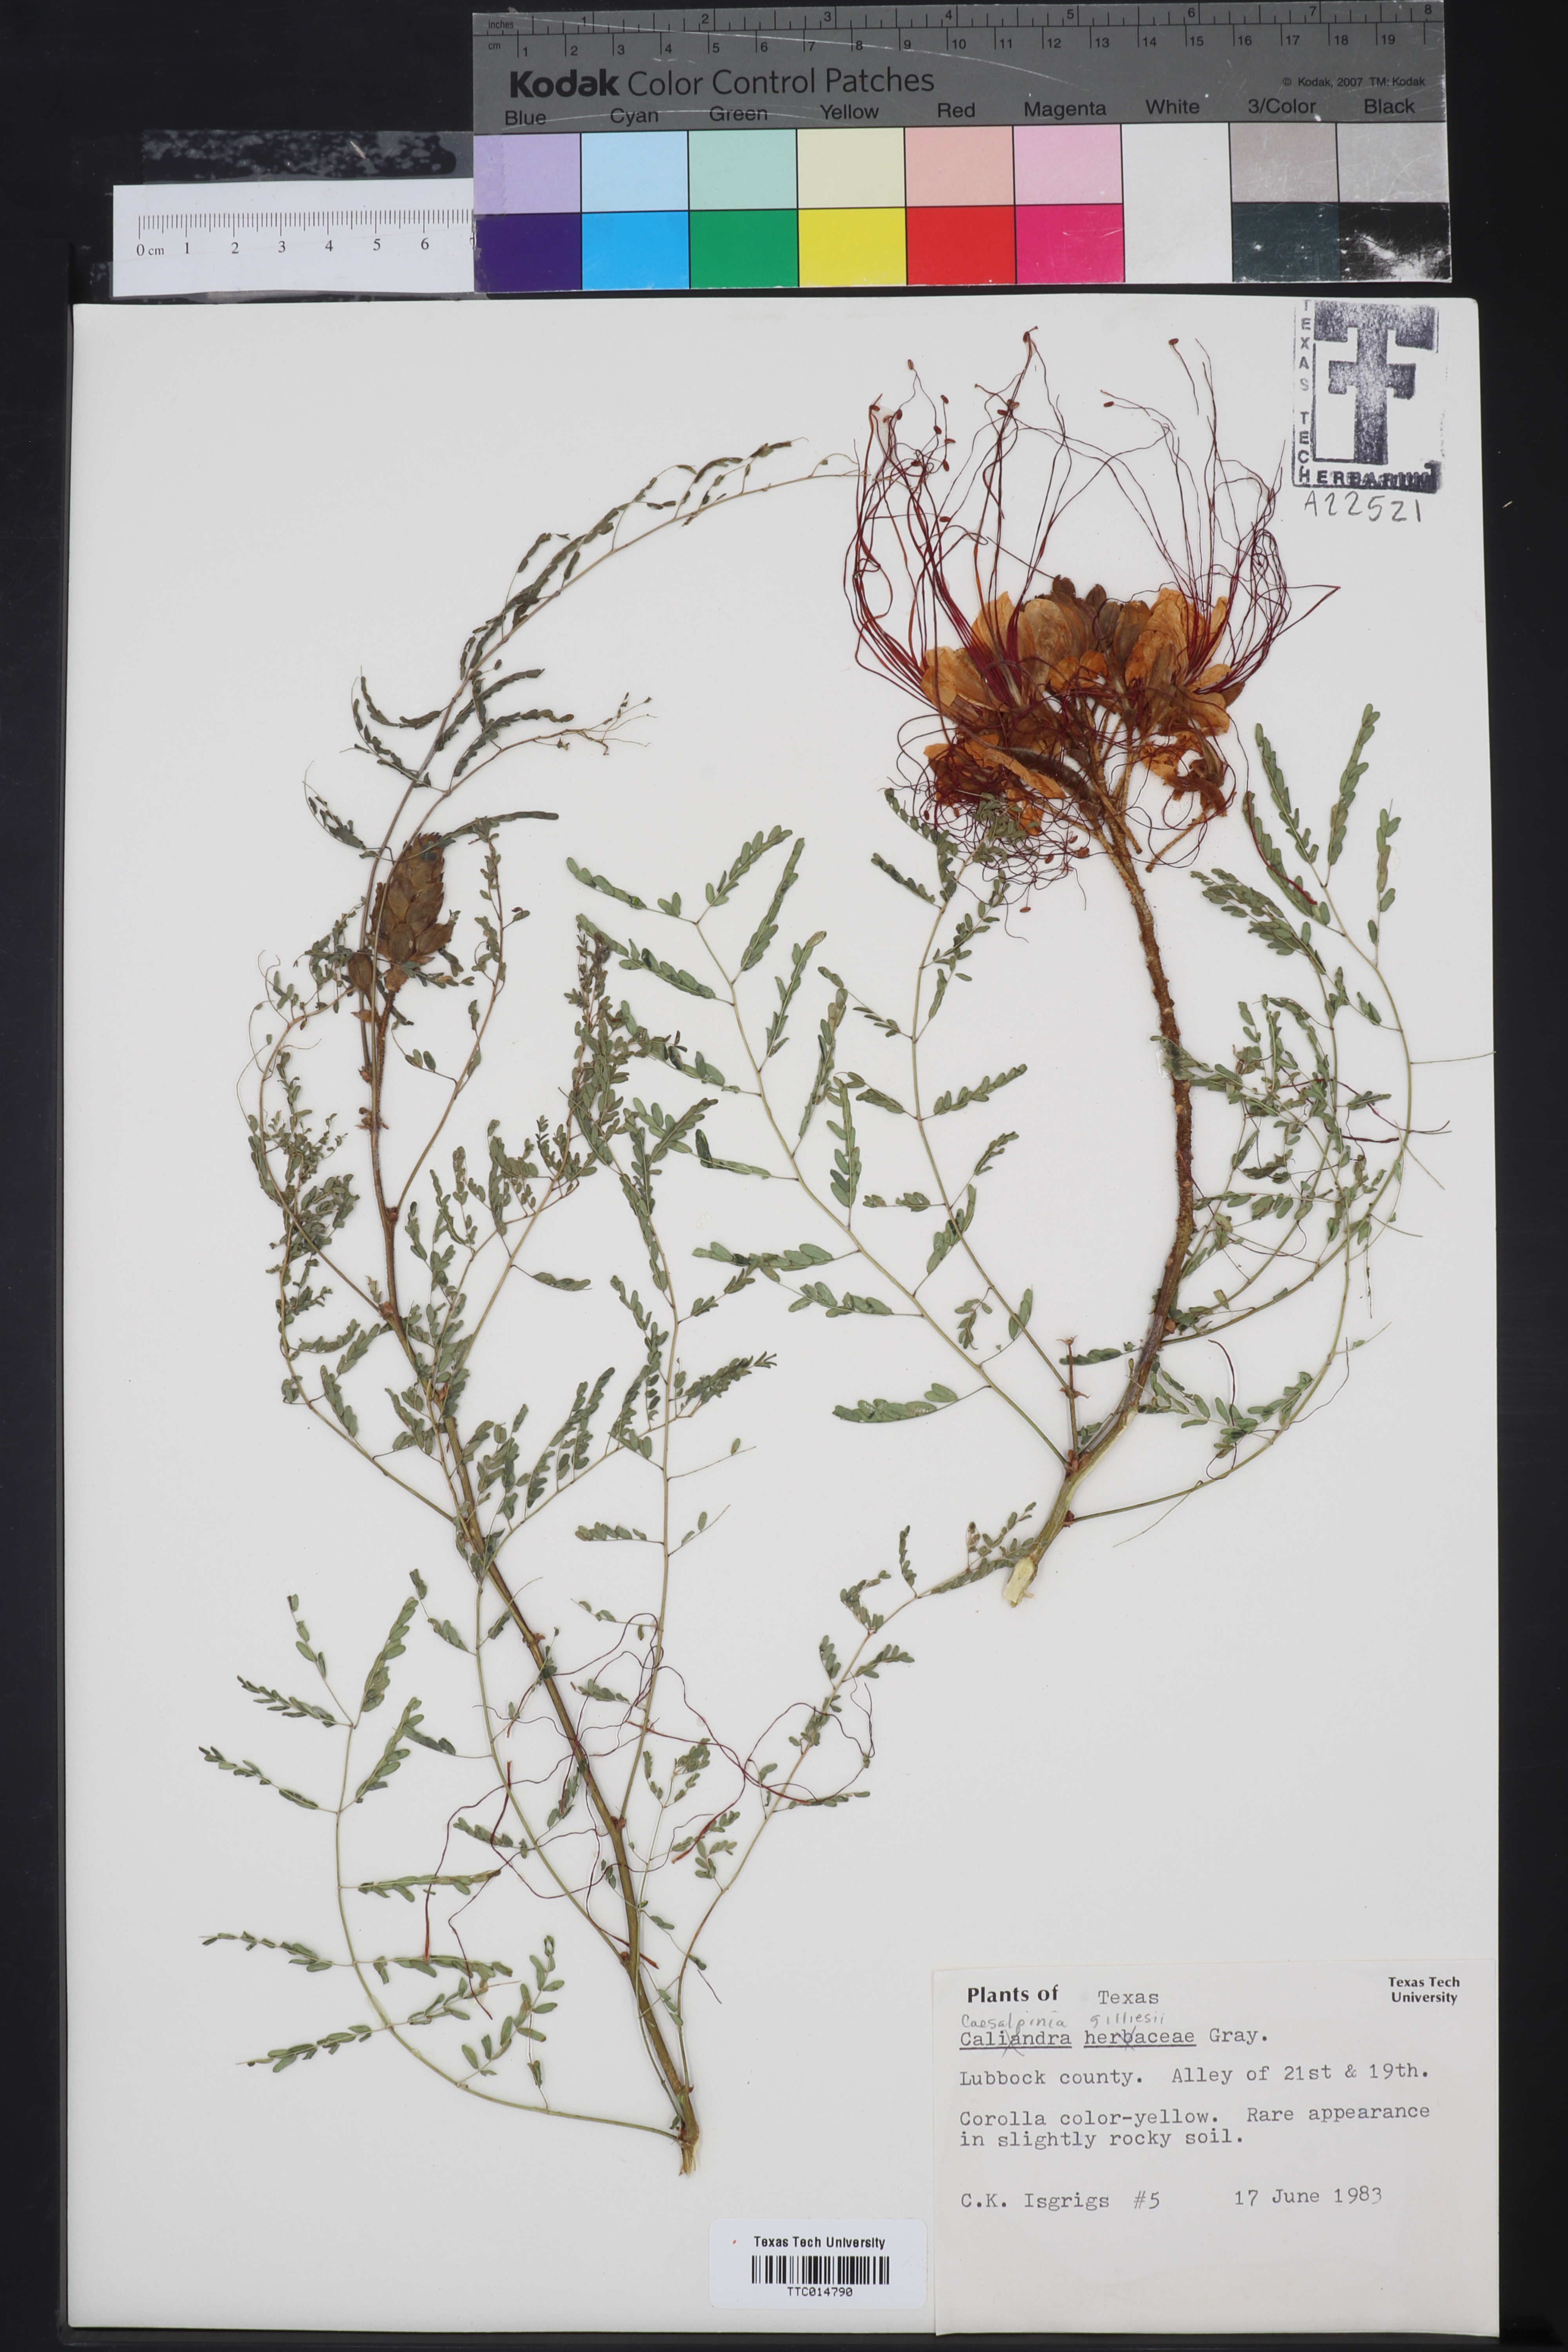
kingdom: Plantae
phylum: Tracheophyta
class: Magnoliopsida
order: Fabales
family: Fabaceae
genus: Erythrostemon
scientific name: Erythrostemon gilliesii
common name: Bird-of-paradise shrub
